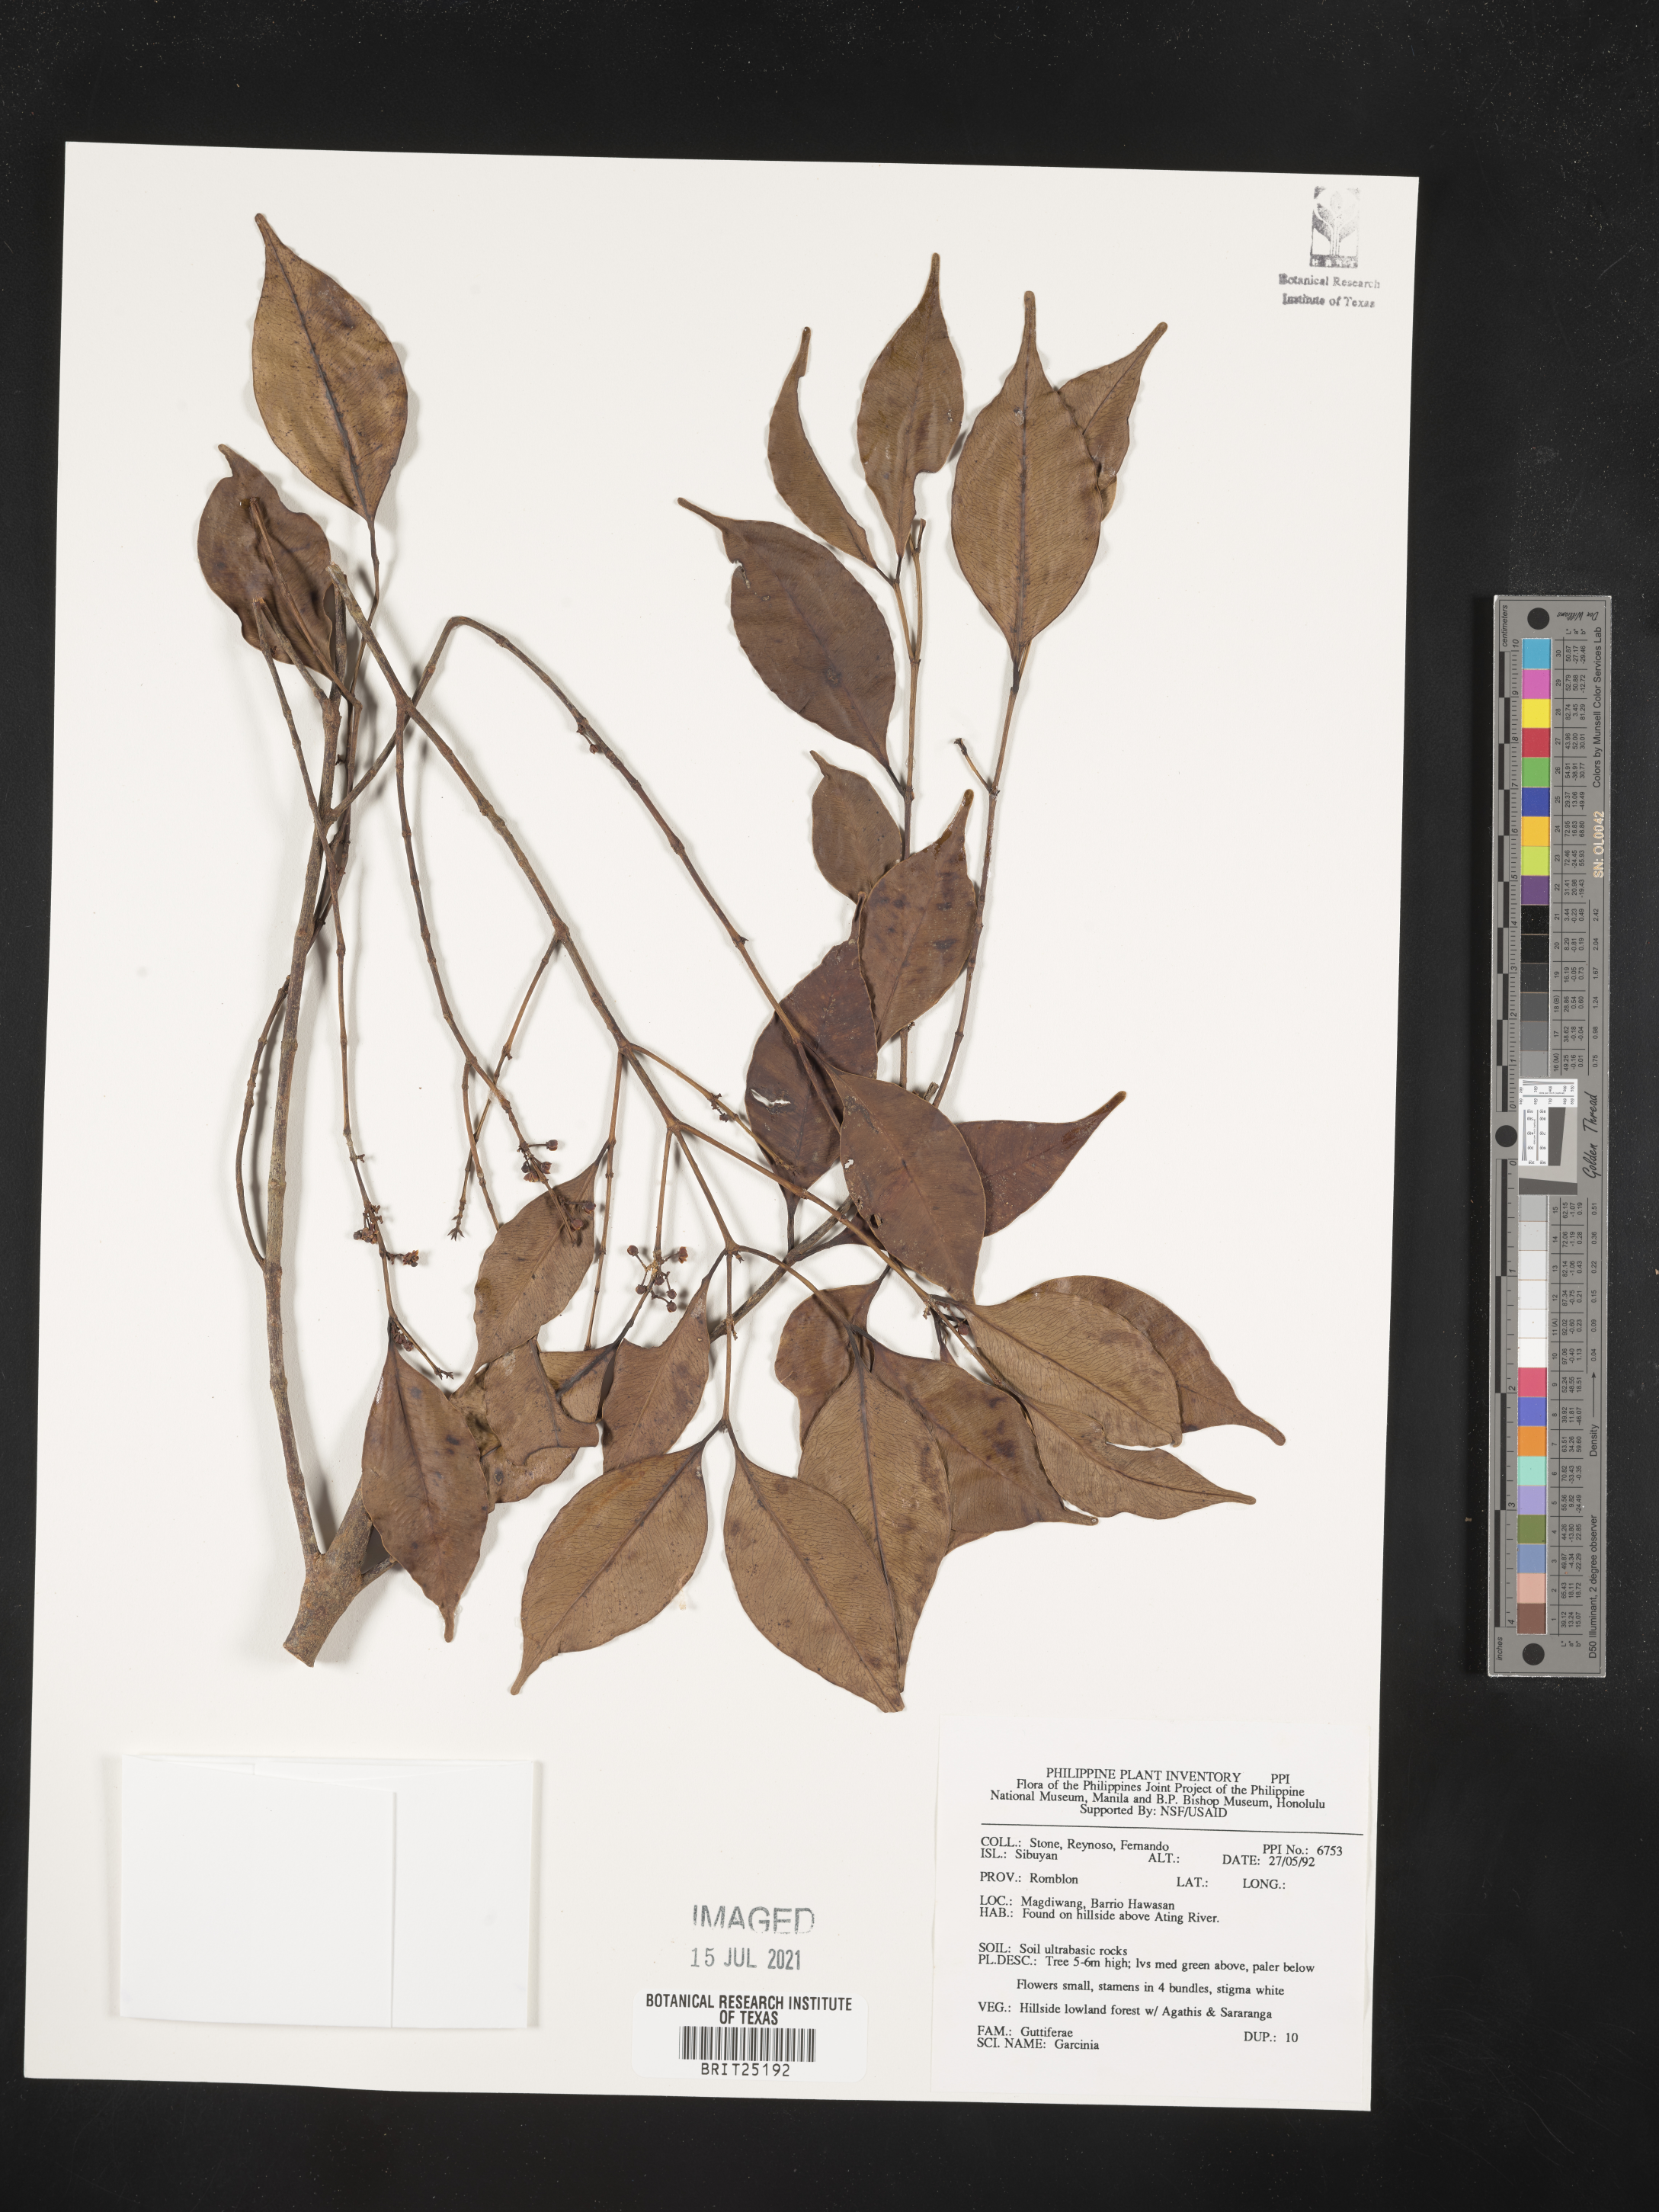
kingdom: Plantae
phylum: Tracheophyta
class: Magnoliopsida
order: Malpighiales
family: Clusiaceae
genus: Garcinia
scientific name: Garcinia
